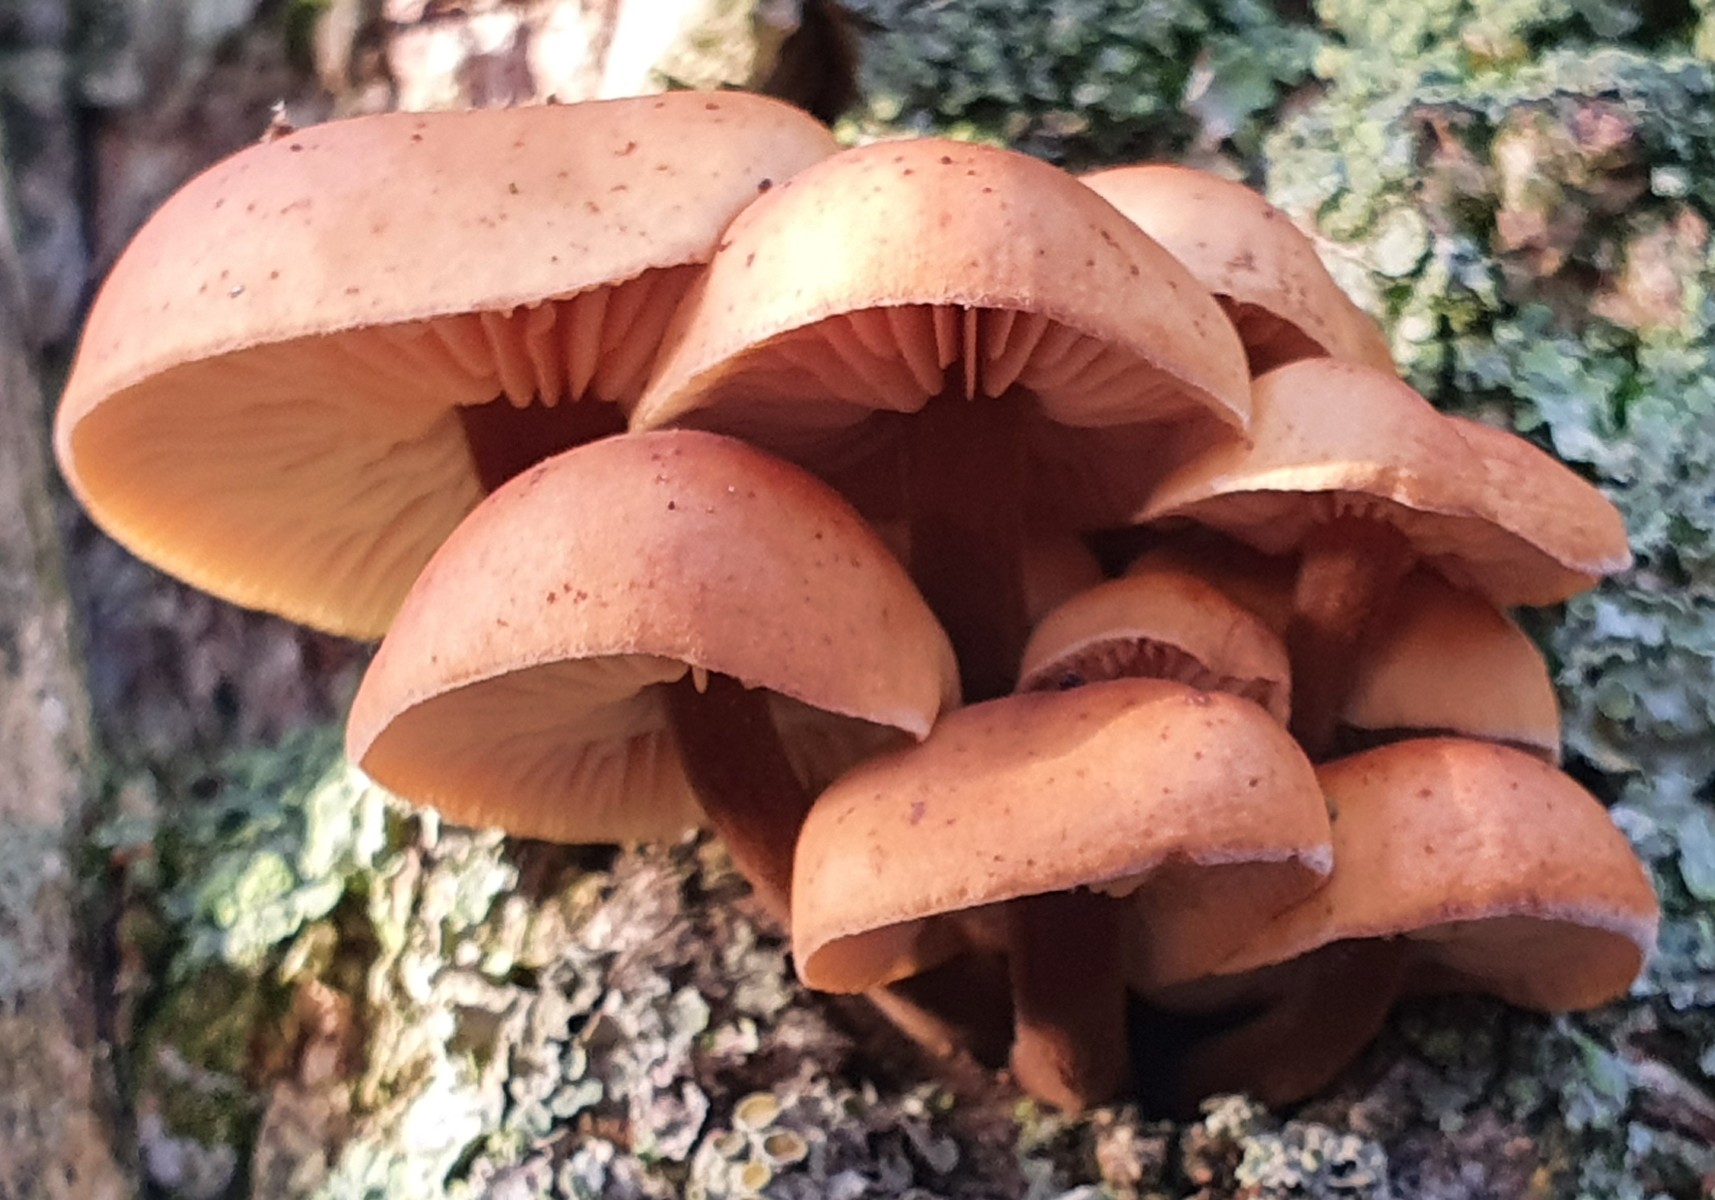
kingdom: Fungi
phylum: Basidiomycota
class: Agaricomycetes
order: Agaricales
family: Physalacriaceae
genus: Flammulina
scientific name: Flammulina
